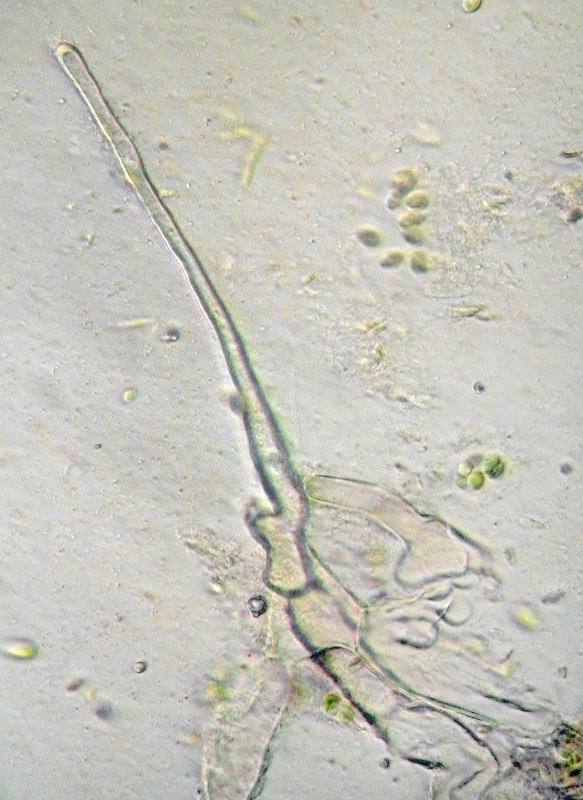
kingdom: Fungi
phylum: Ascomycota
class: Pezizomycetes
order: Pezizales
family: Pyronemataceae
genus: Neottiella
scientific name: Neottiella aphanodictyon
